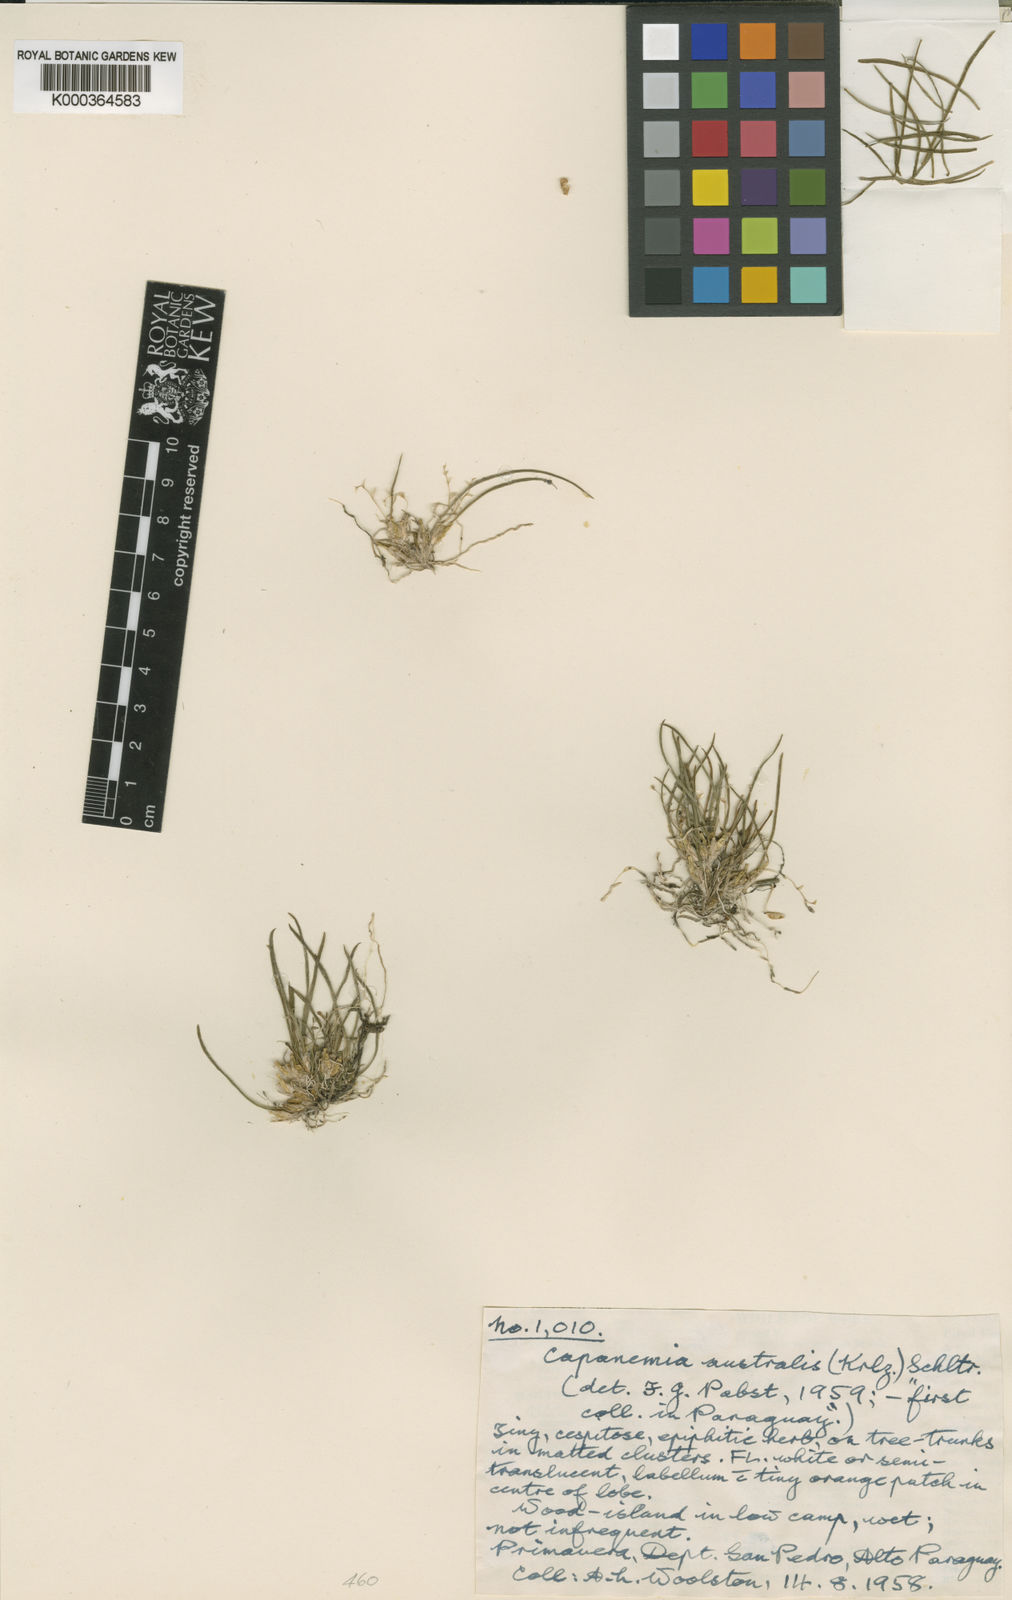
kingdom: Plantae
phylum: Tracheophyta
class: Liliopsida
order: Asparagales
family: Orchidaceae
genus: Capanemia
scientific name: Capanemia micromera
